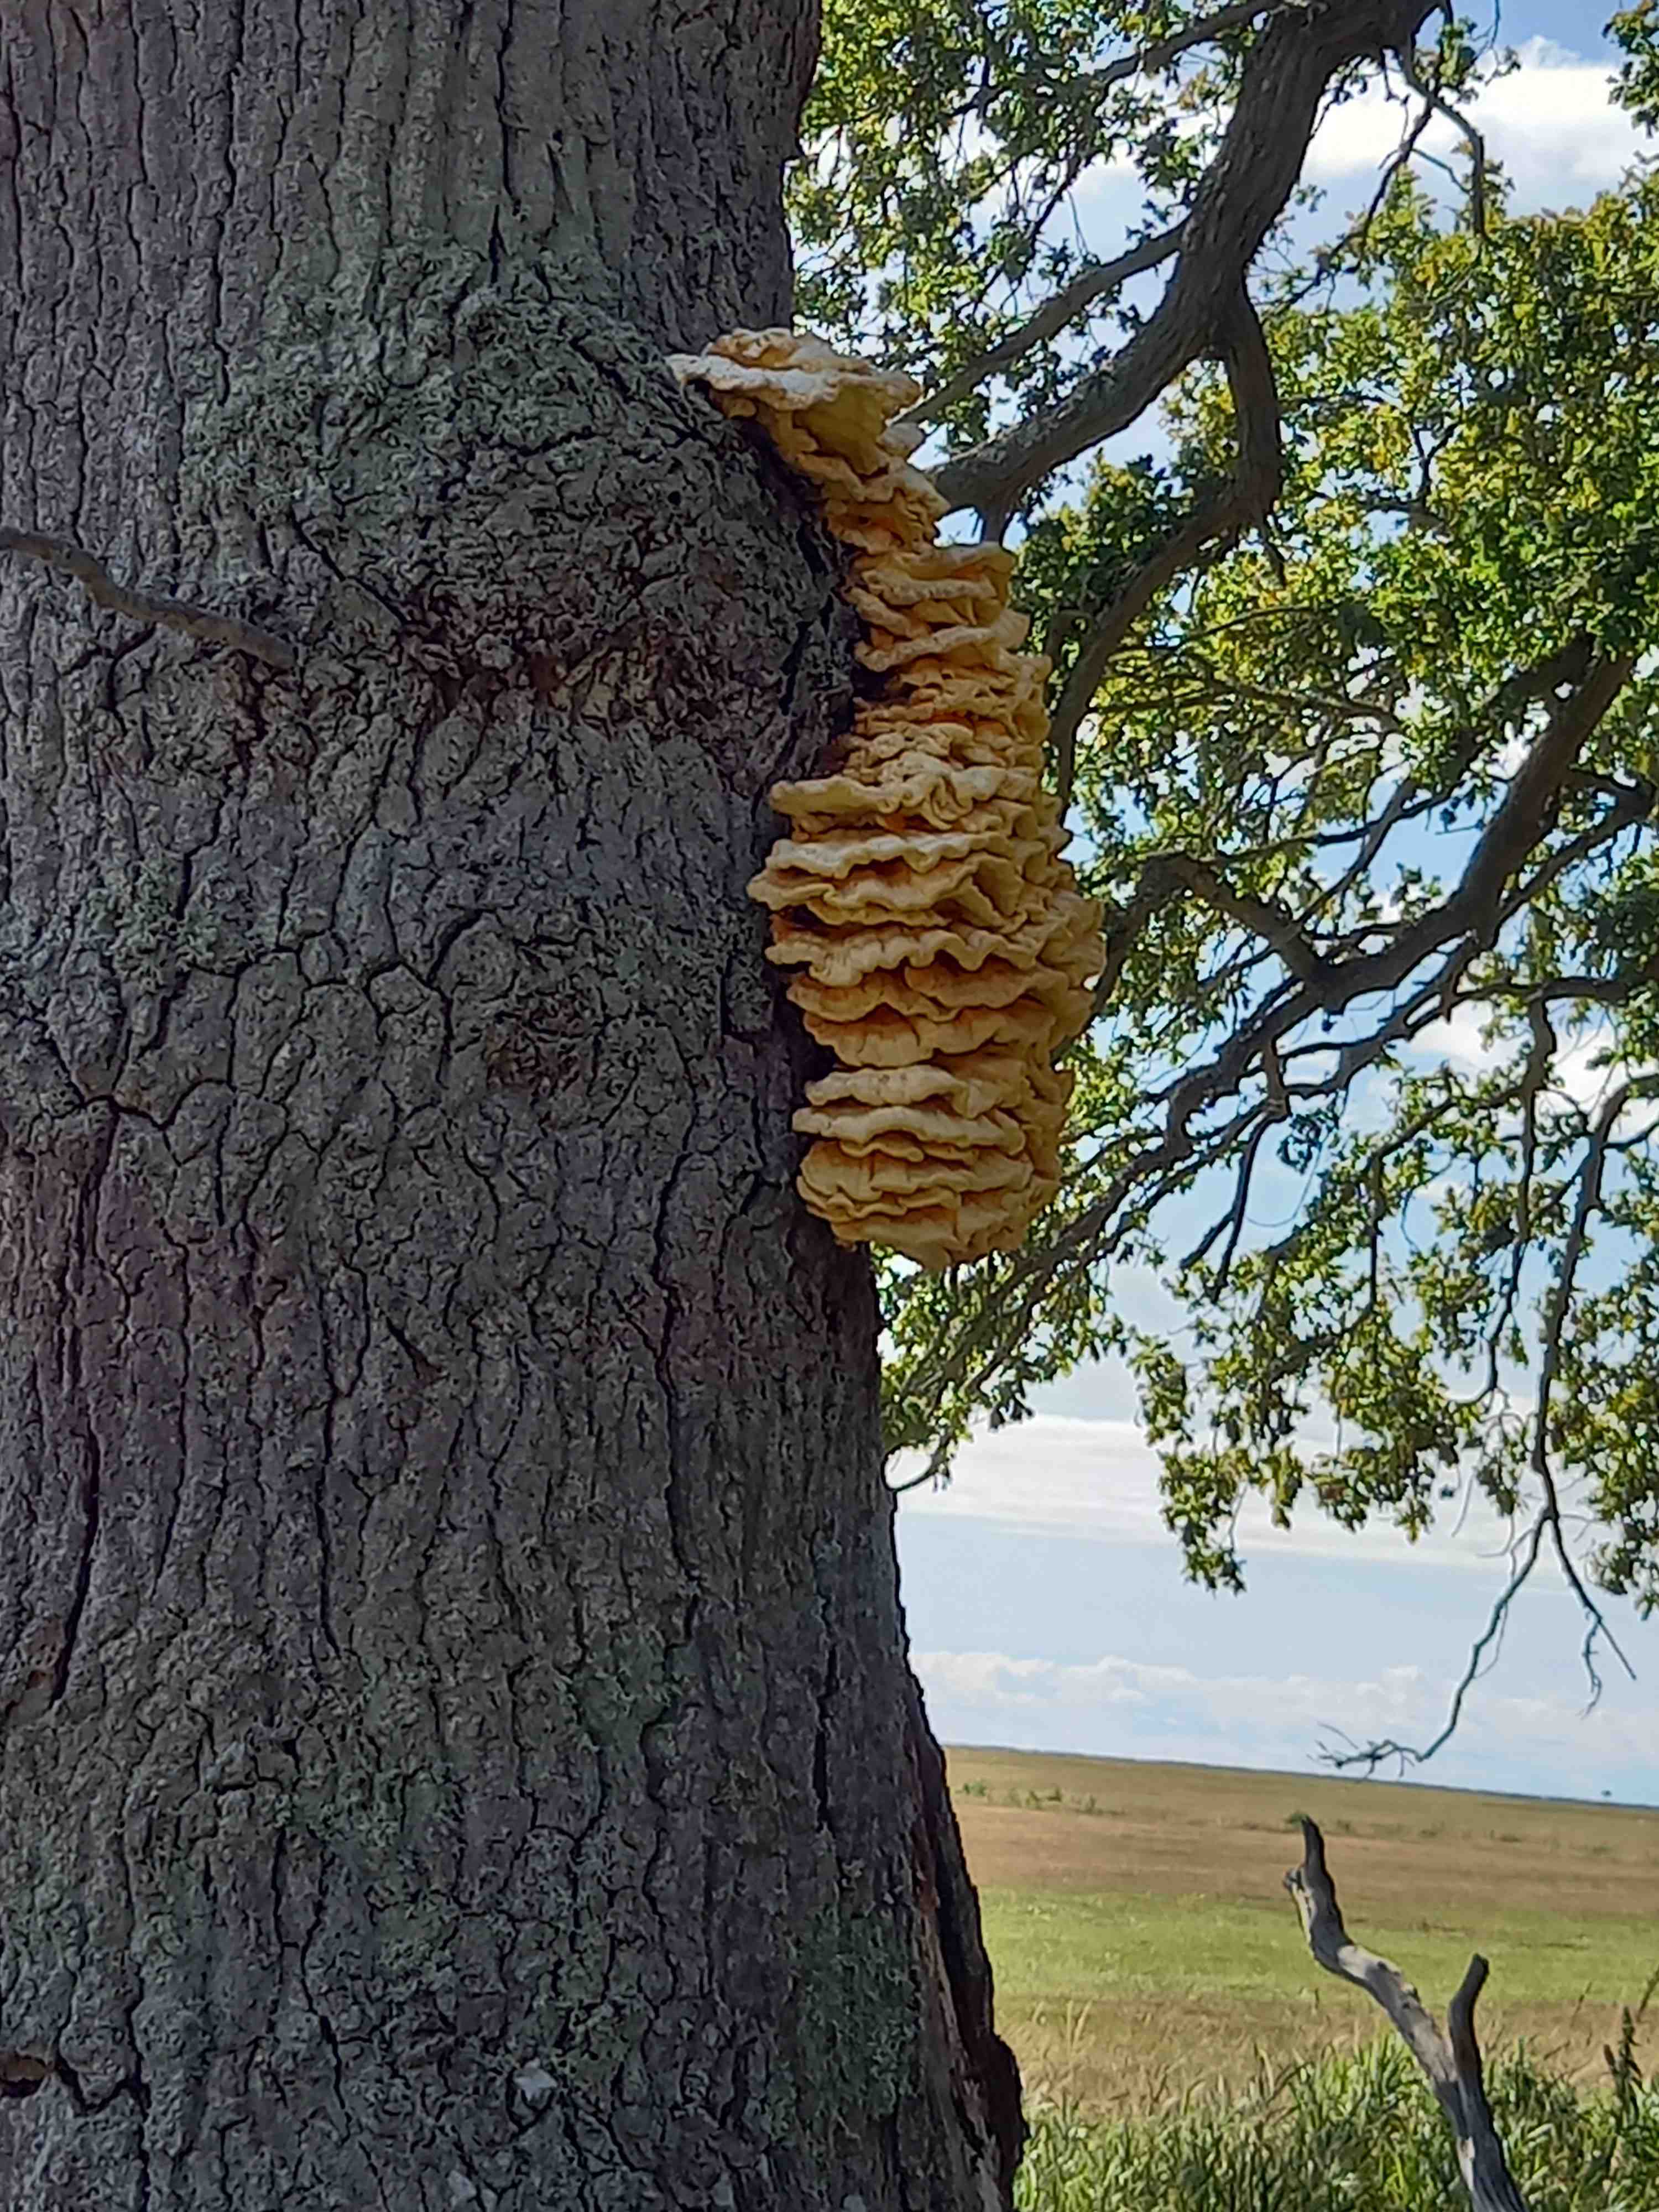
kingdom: Fungi
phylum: Basidiomycota
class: Agaricomycetes
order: Polyporales
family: Laetiporaceae
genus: Laetiporus
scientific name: Laetiporus sulphureus
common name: svovlporesvamp
